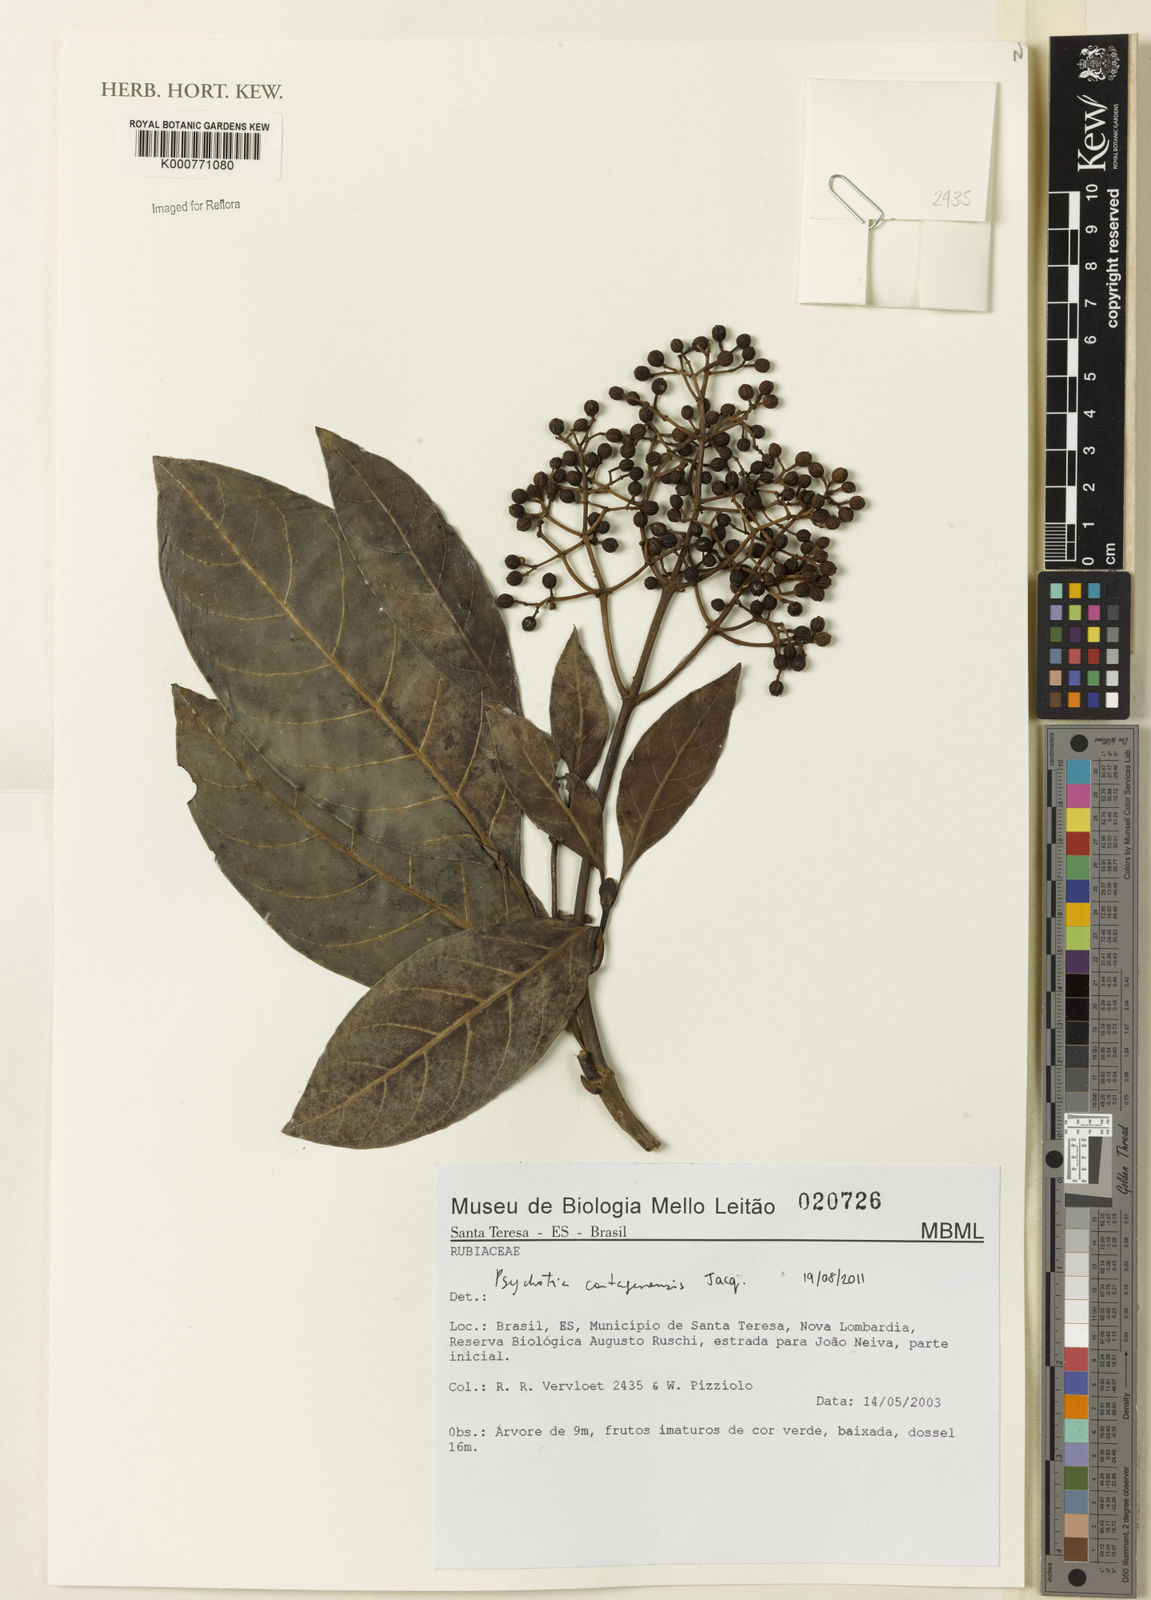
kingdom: Plantae
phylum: Tracheophyta
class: Magnoliopsida
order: Gentianales
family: Rubiaceae
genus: Psychotria
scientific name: Psychotria carthagenensis
